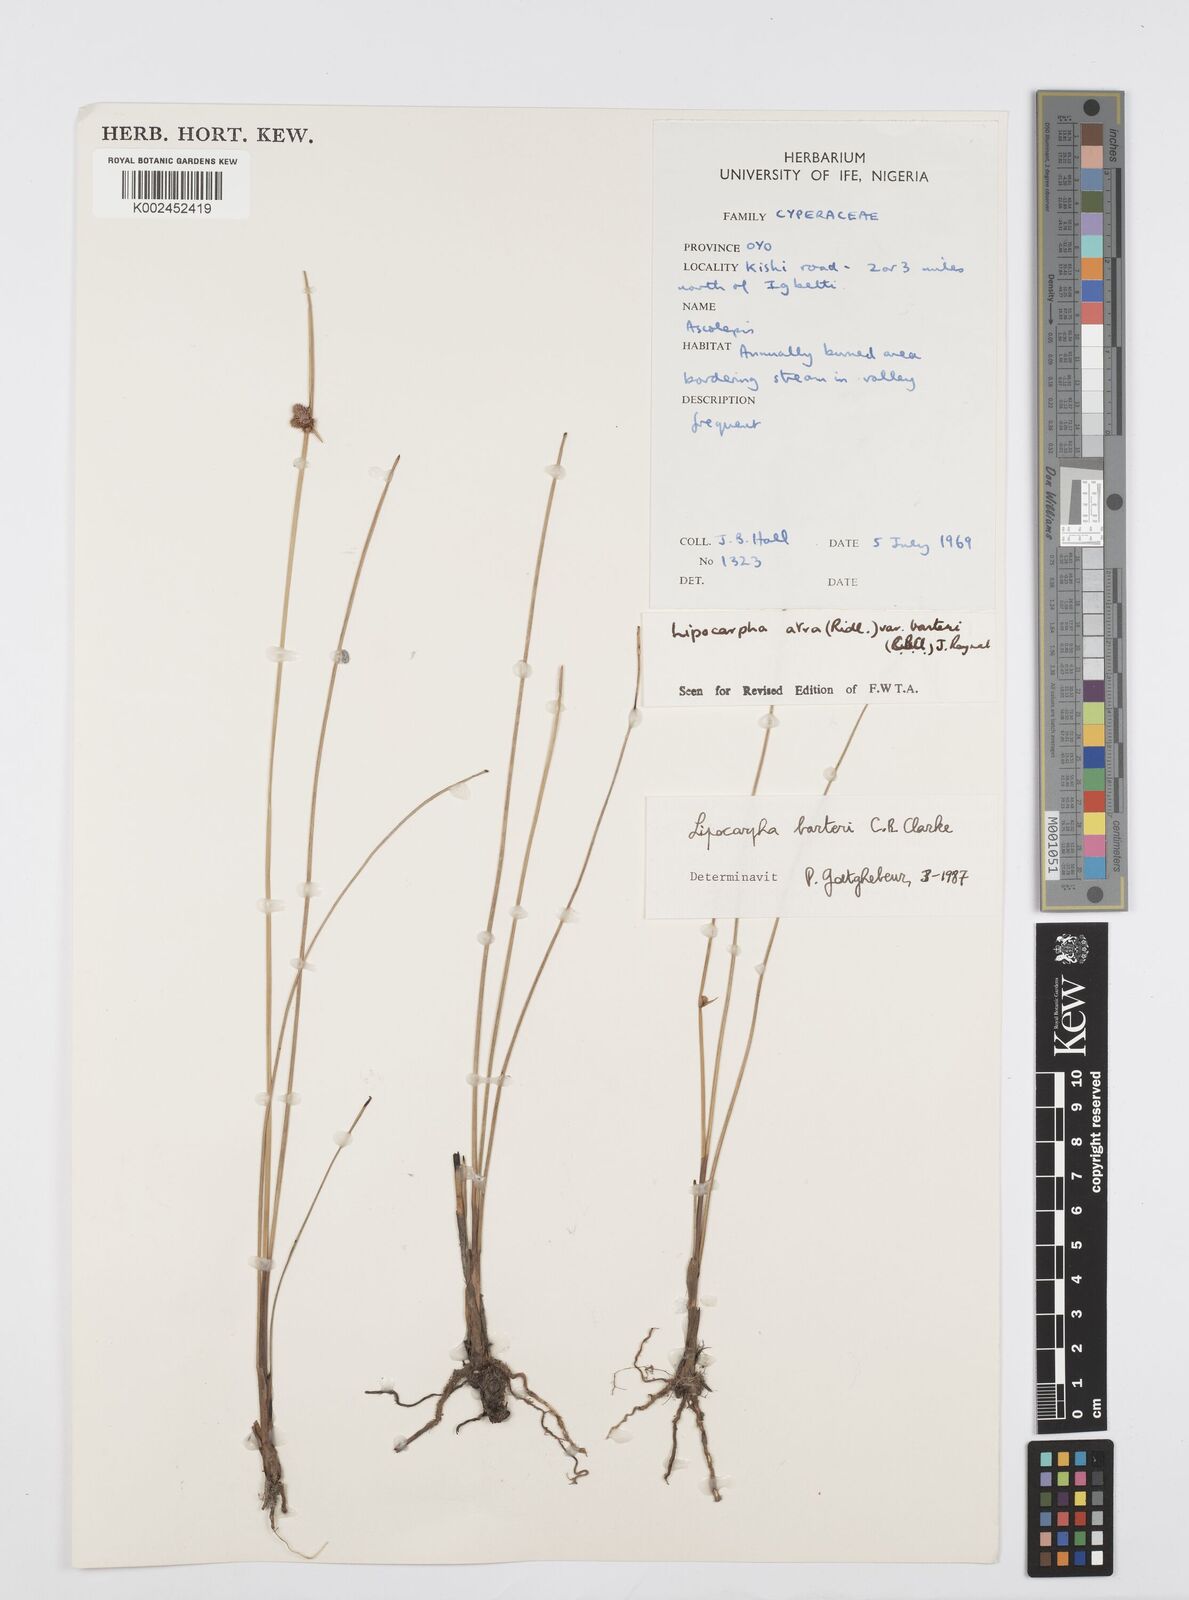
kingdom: Plantae
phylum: Tracheophyta
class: Liliopsida
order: Poales
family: Cyperaceae
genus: Cyperus
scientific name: Cyperus pustulatus
